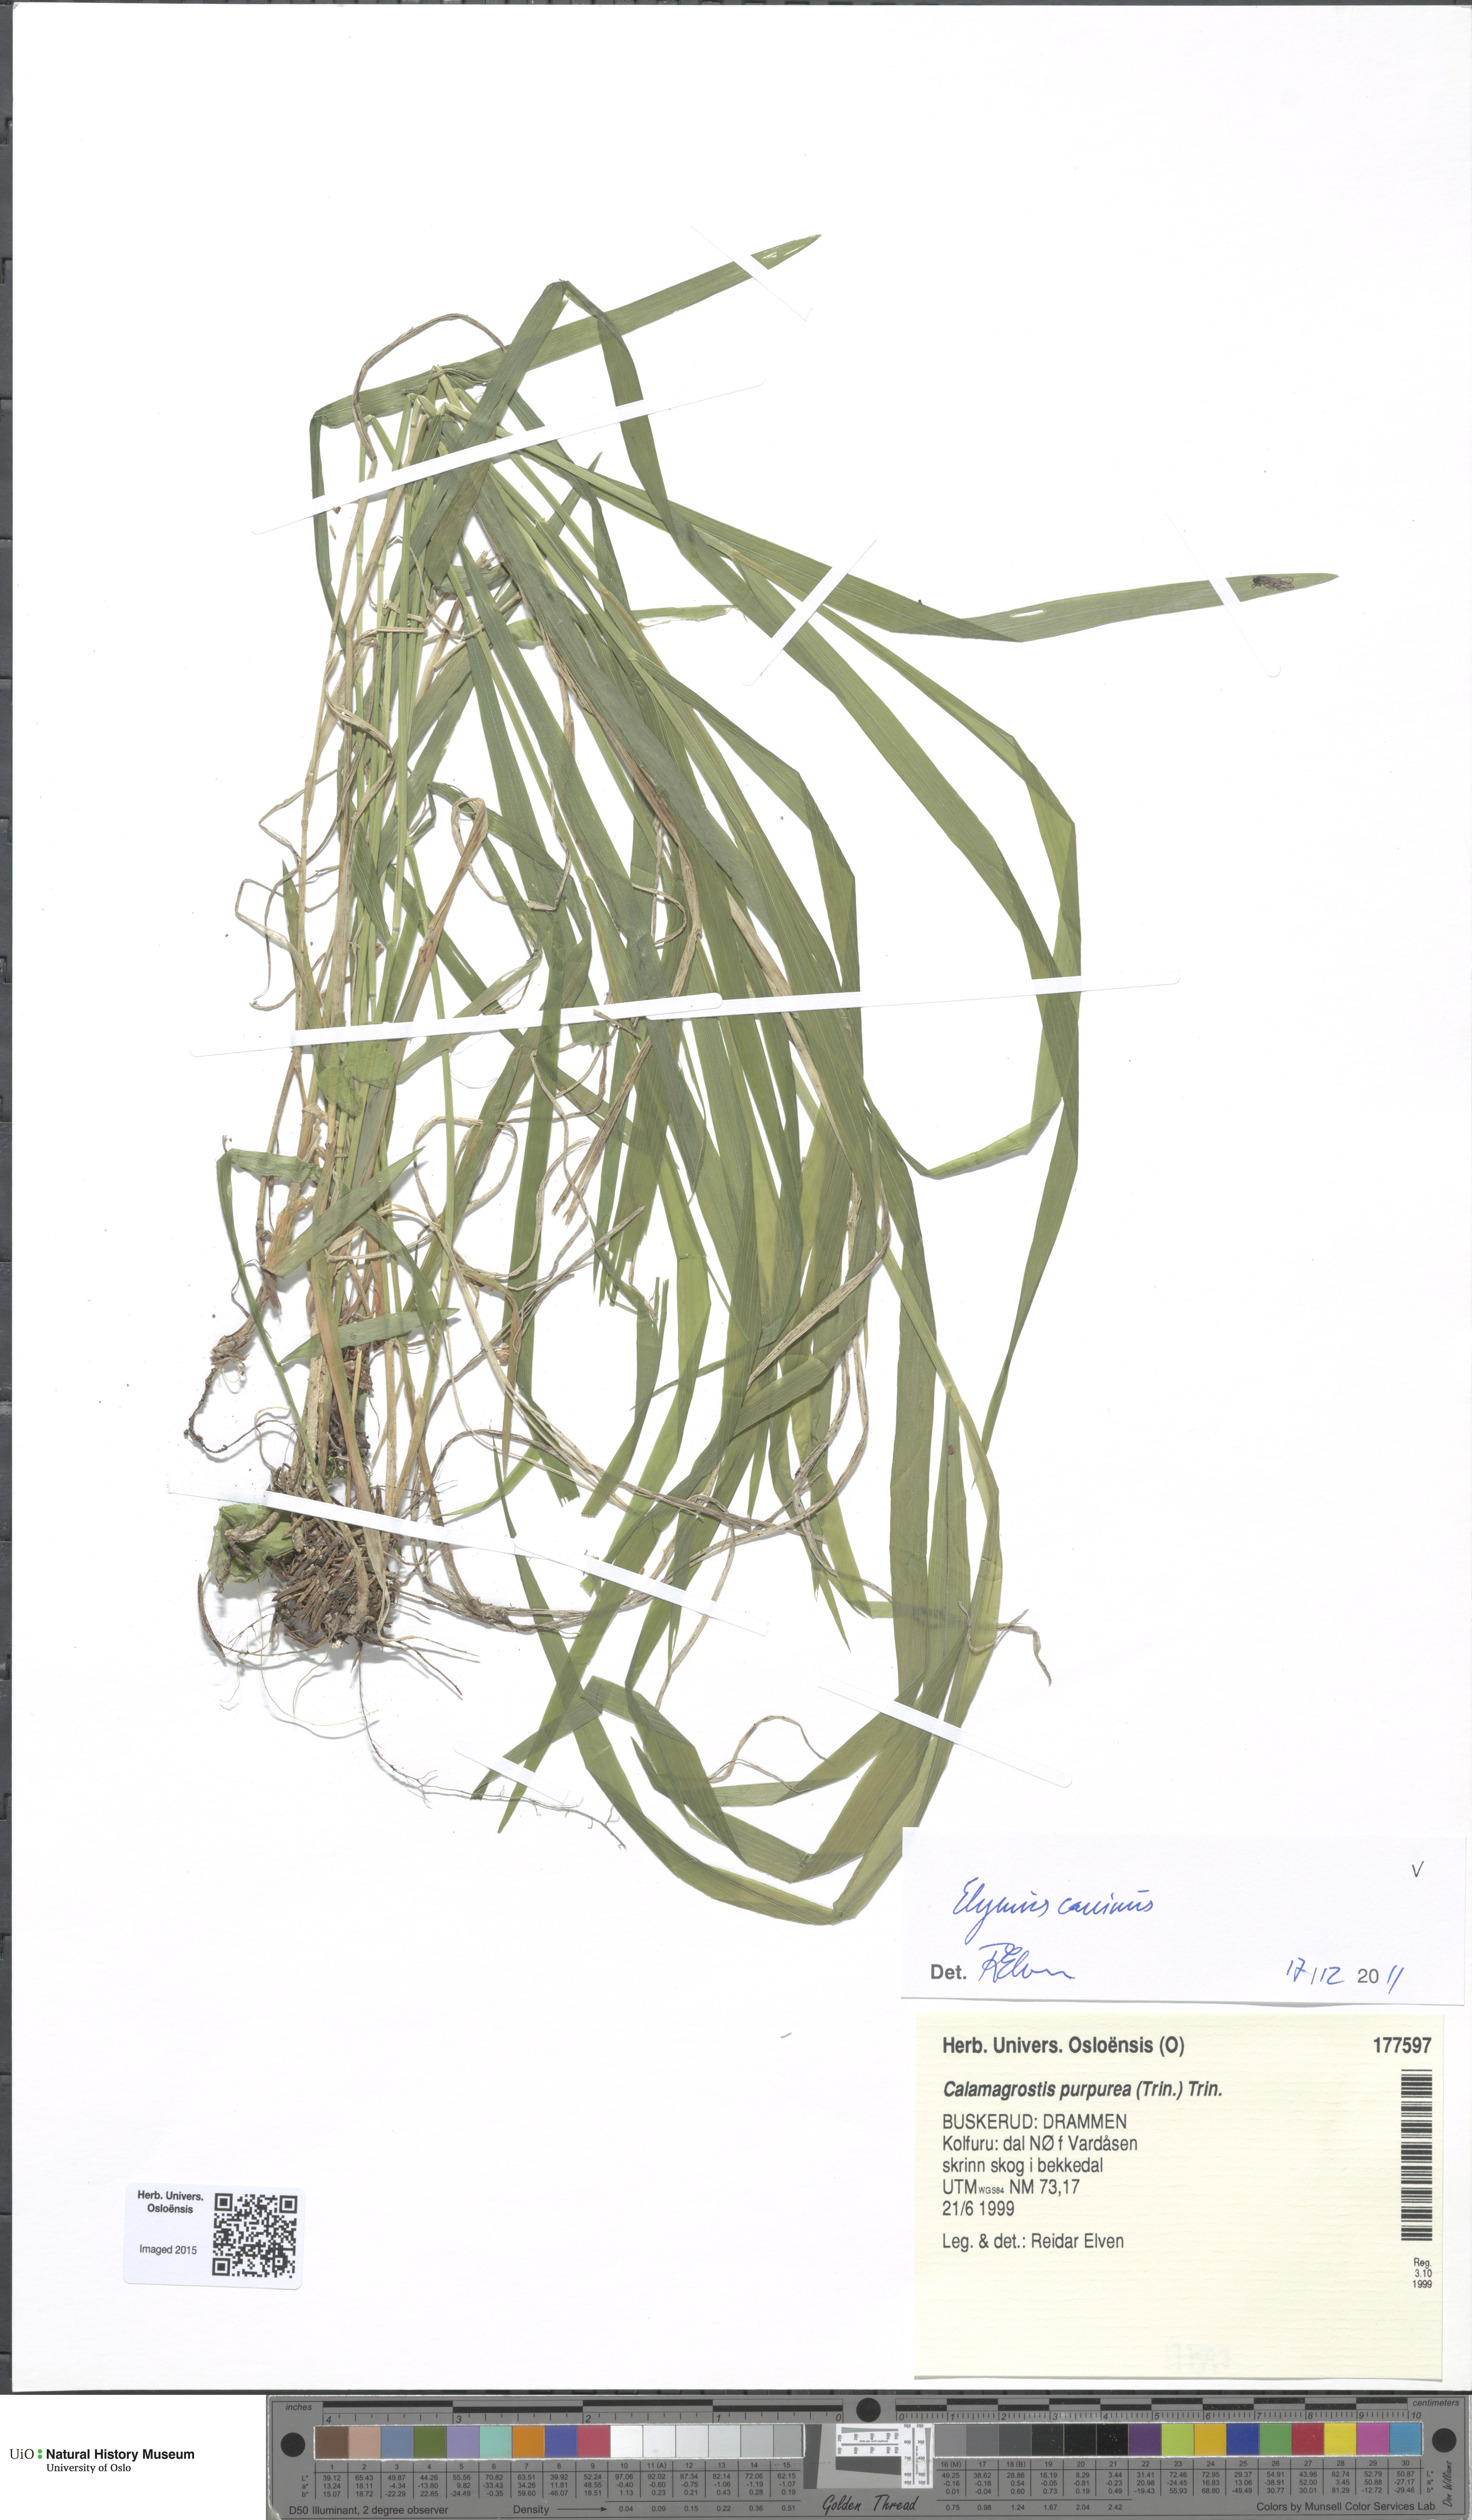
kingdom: Plantae
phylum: Tracheophyta
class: Liliopsida
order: Poales
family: Poaceae
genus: Elymus
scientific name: Elymus caninus
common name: Bearded couch
